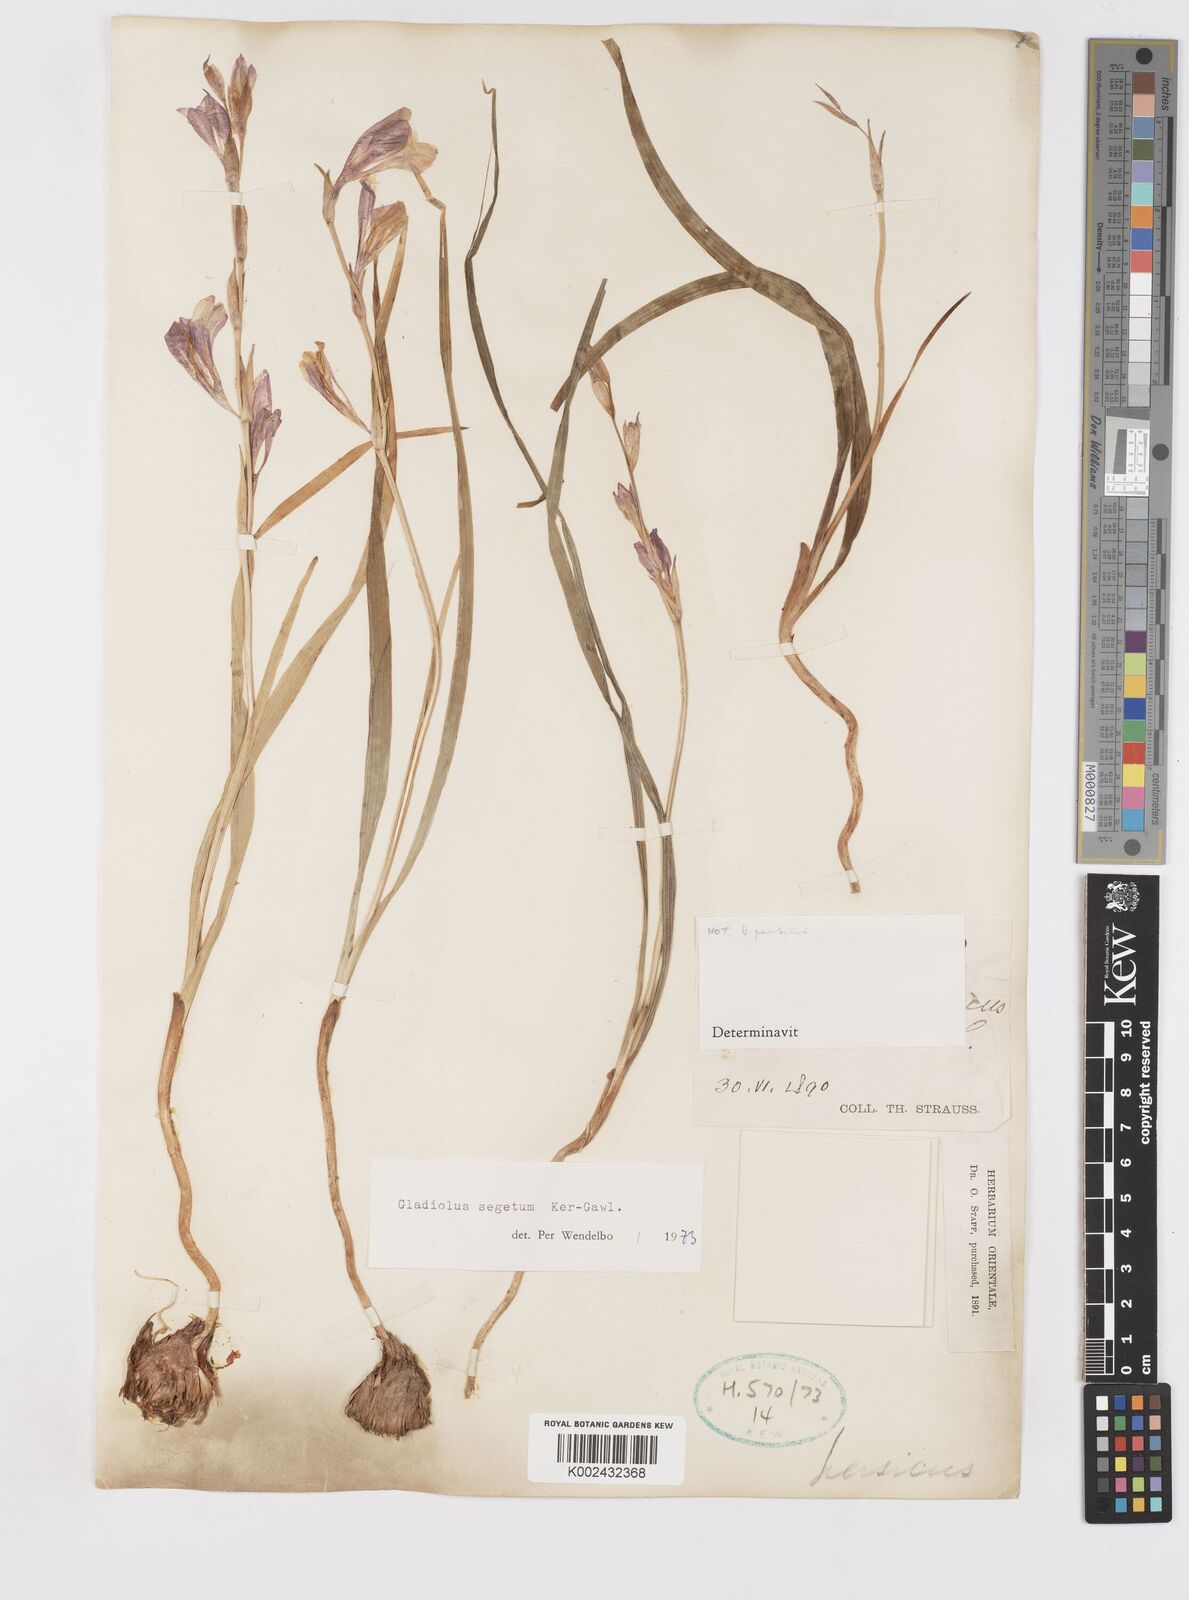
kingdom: Plantae
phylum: Tracheophyta
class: Liliopsida
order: Asparagales
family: Iridaceae
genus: Gladiolus
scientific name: Gladiolus italicus
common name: Field gladiolus
